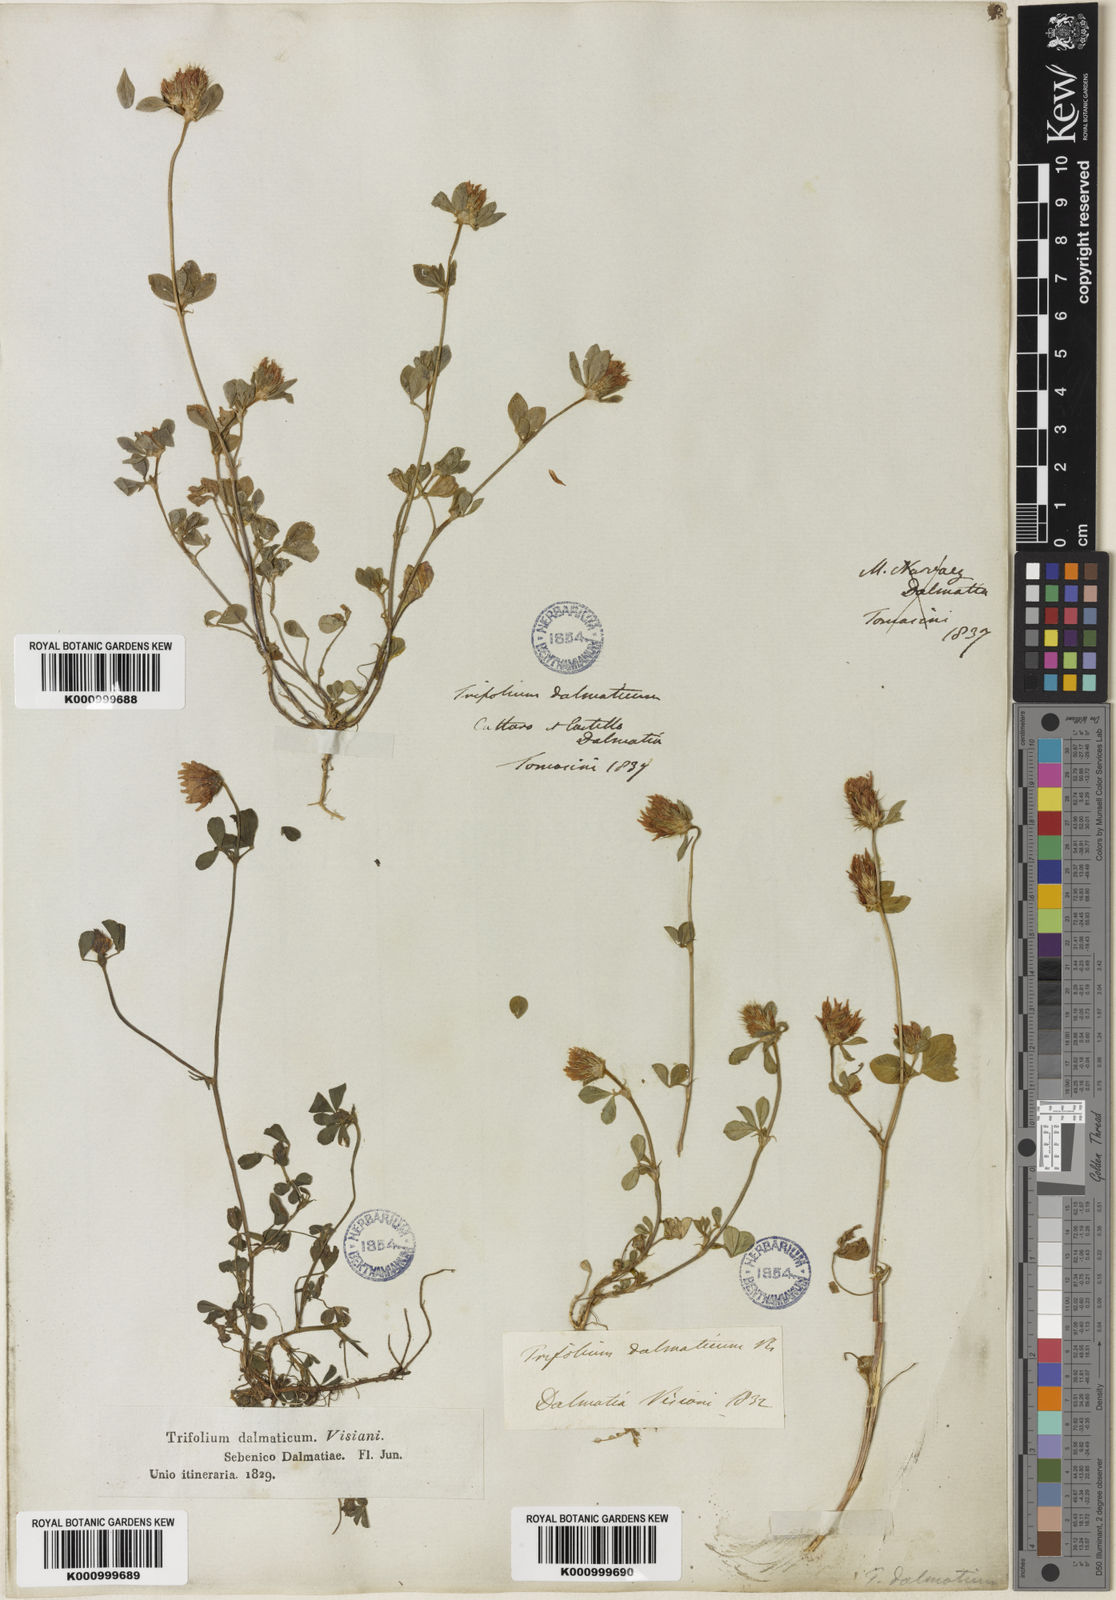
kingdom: Plantae
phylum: Tracheophyta
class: Magnoliopsida
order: Fabales
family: Fabaceae
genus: Trifolium
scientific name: Trifolium dalmaticum
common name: Dalmatian clover
